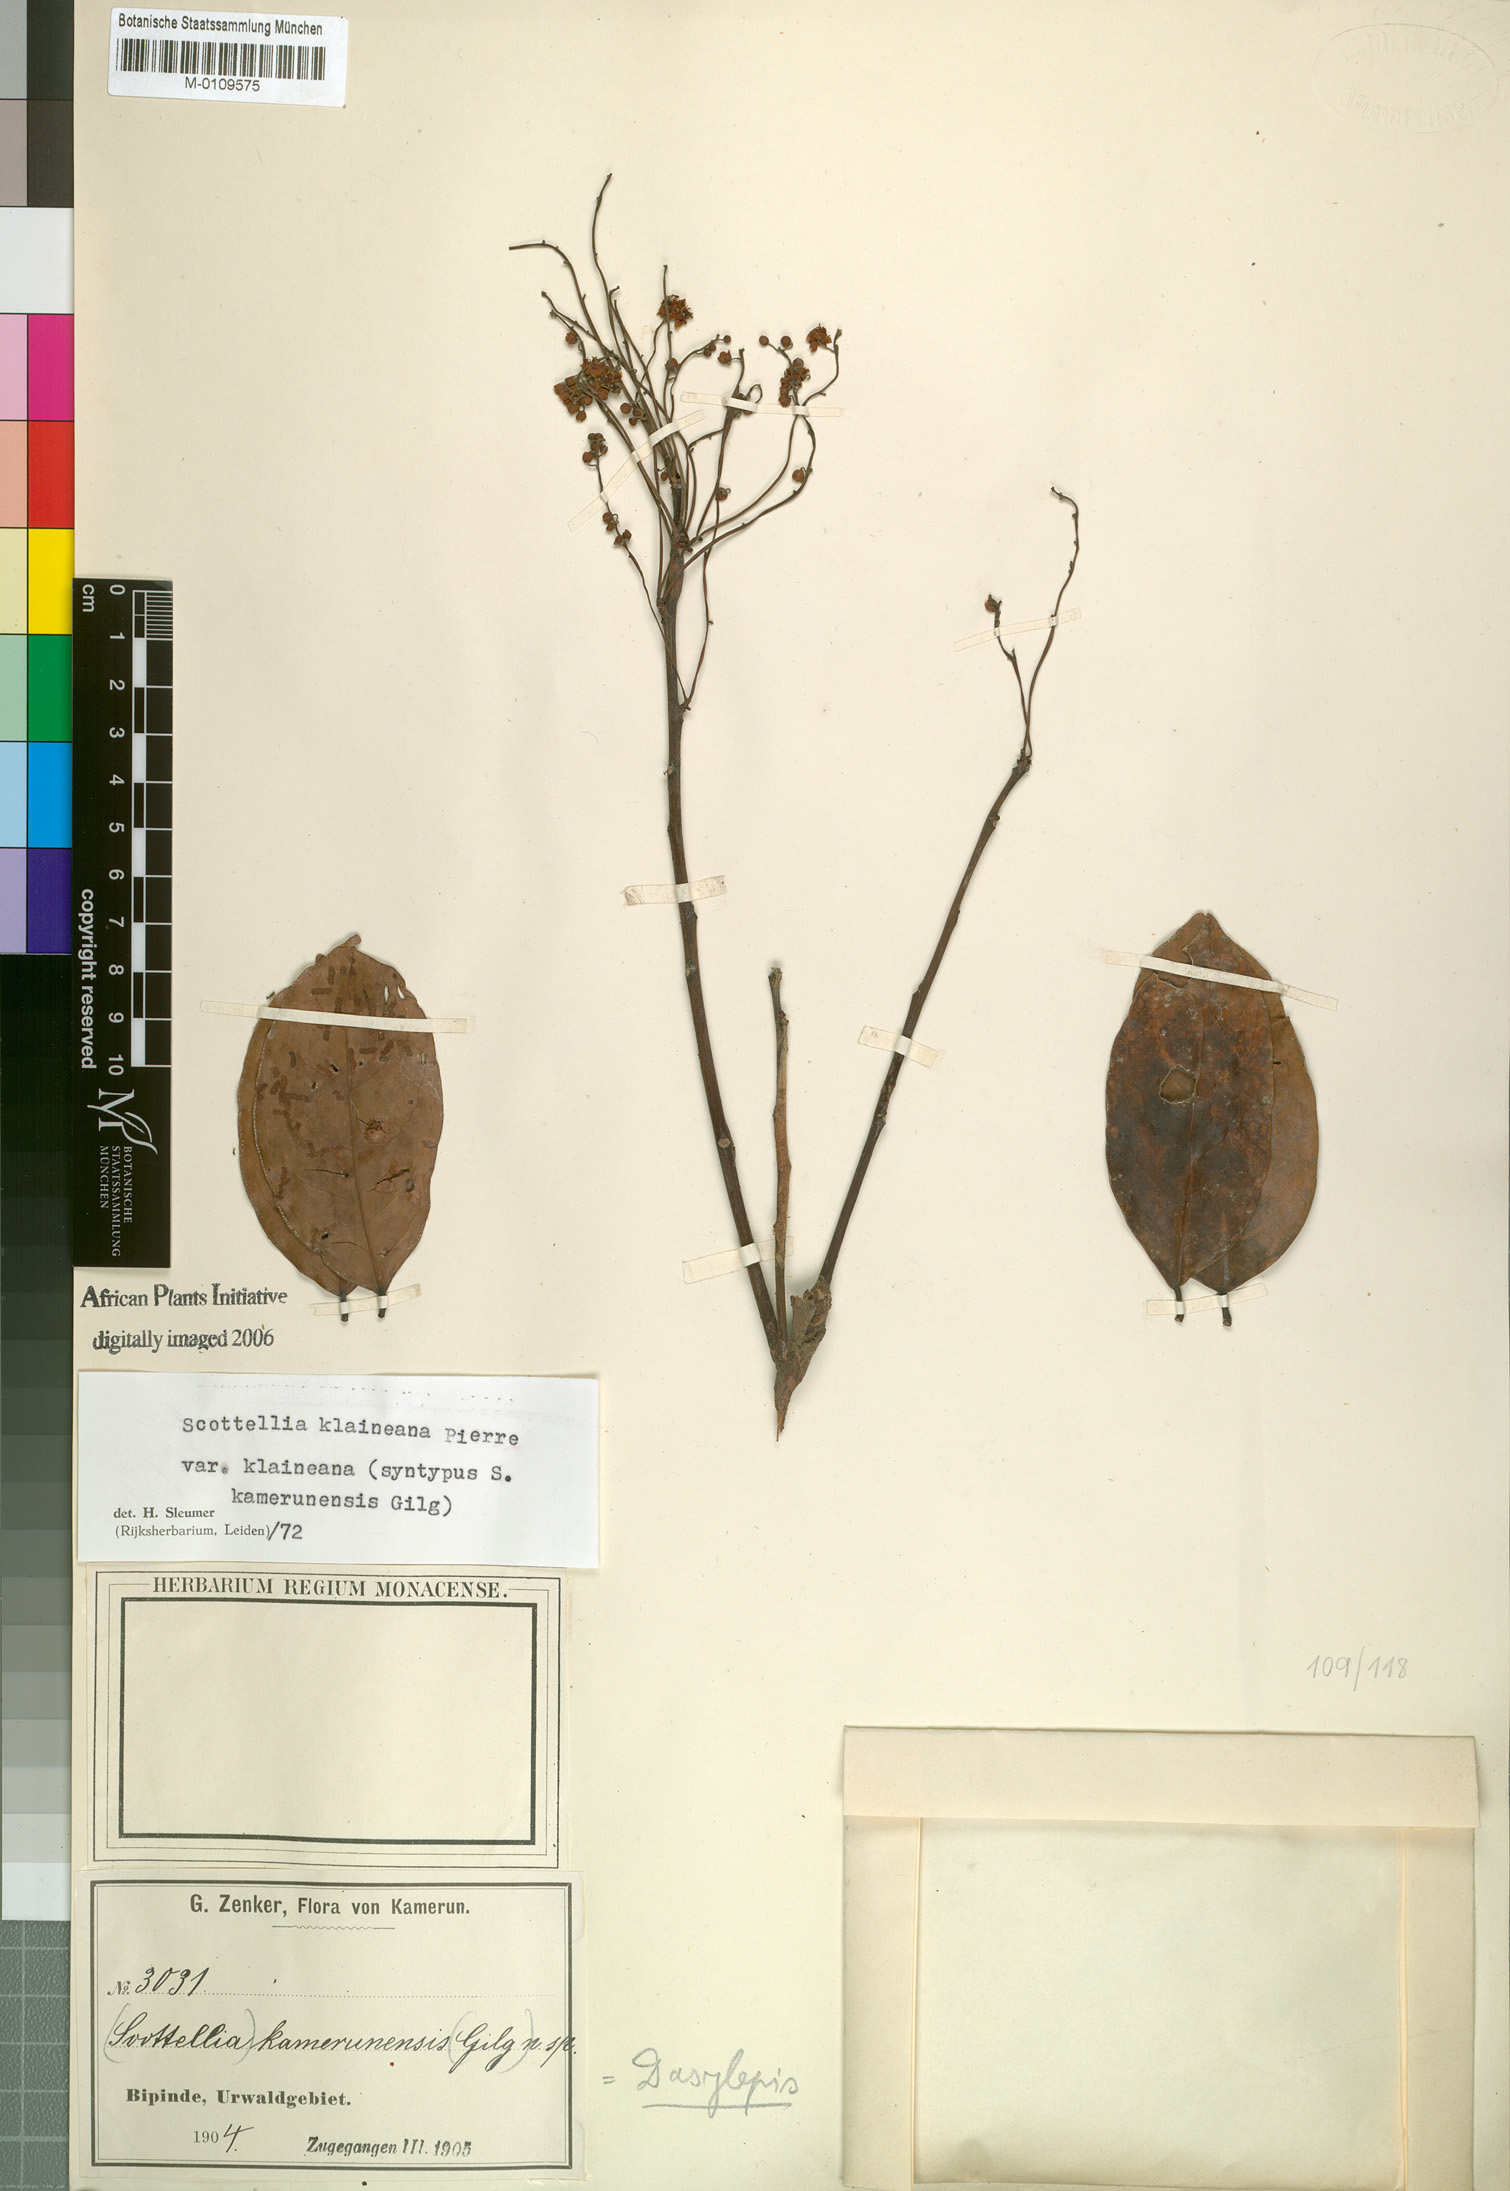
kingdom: Plantae
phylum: Tracheophyta
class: Magnoliopsida
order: Malpighiales
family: Achariaceae
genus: Scottellia
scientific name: Scottellia klaineana
